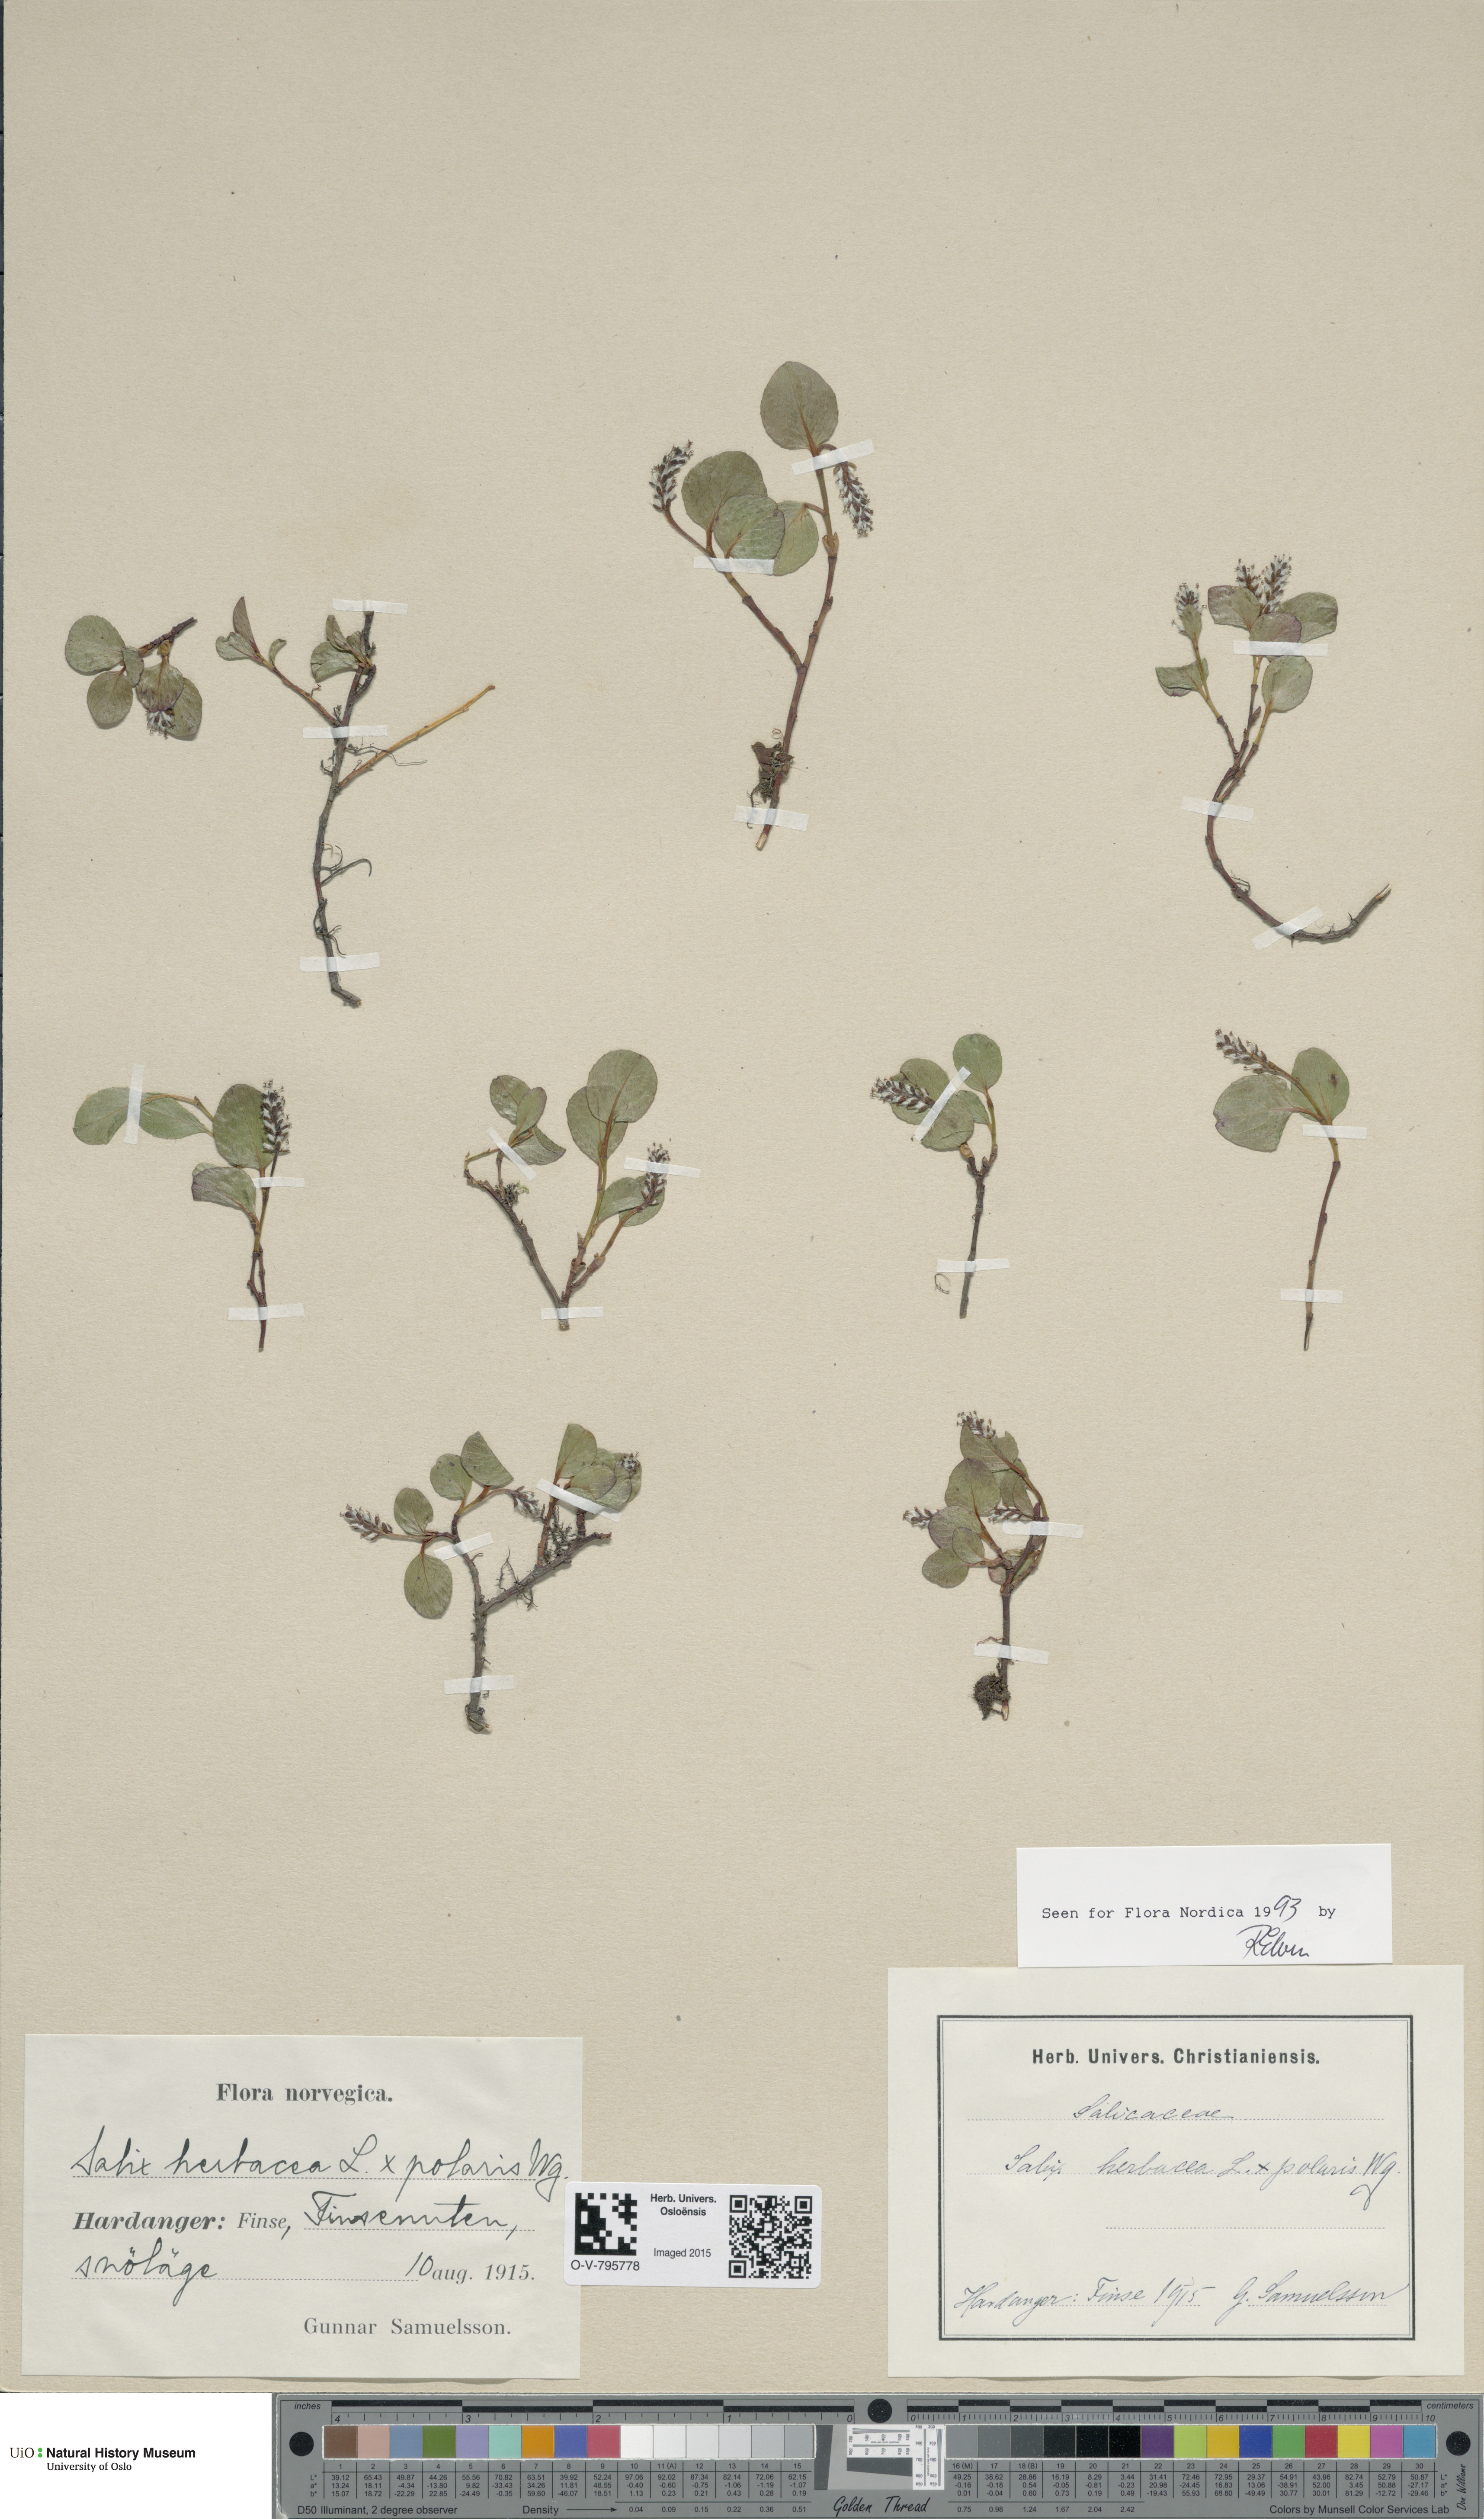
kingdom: Plantae
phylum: Tracheophyta
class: Magnoliopsida
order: Malpighiales
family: Salicaceae
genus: Salix
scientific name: Salix
